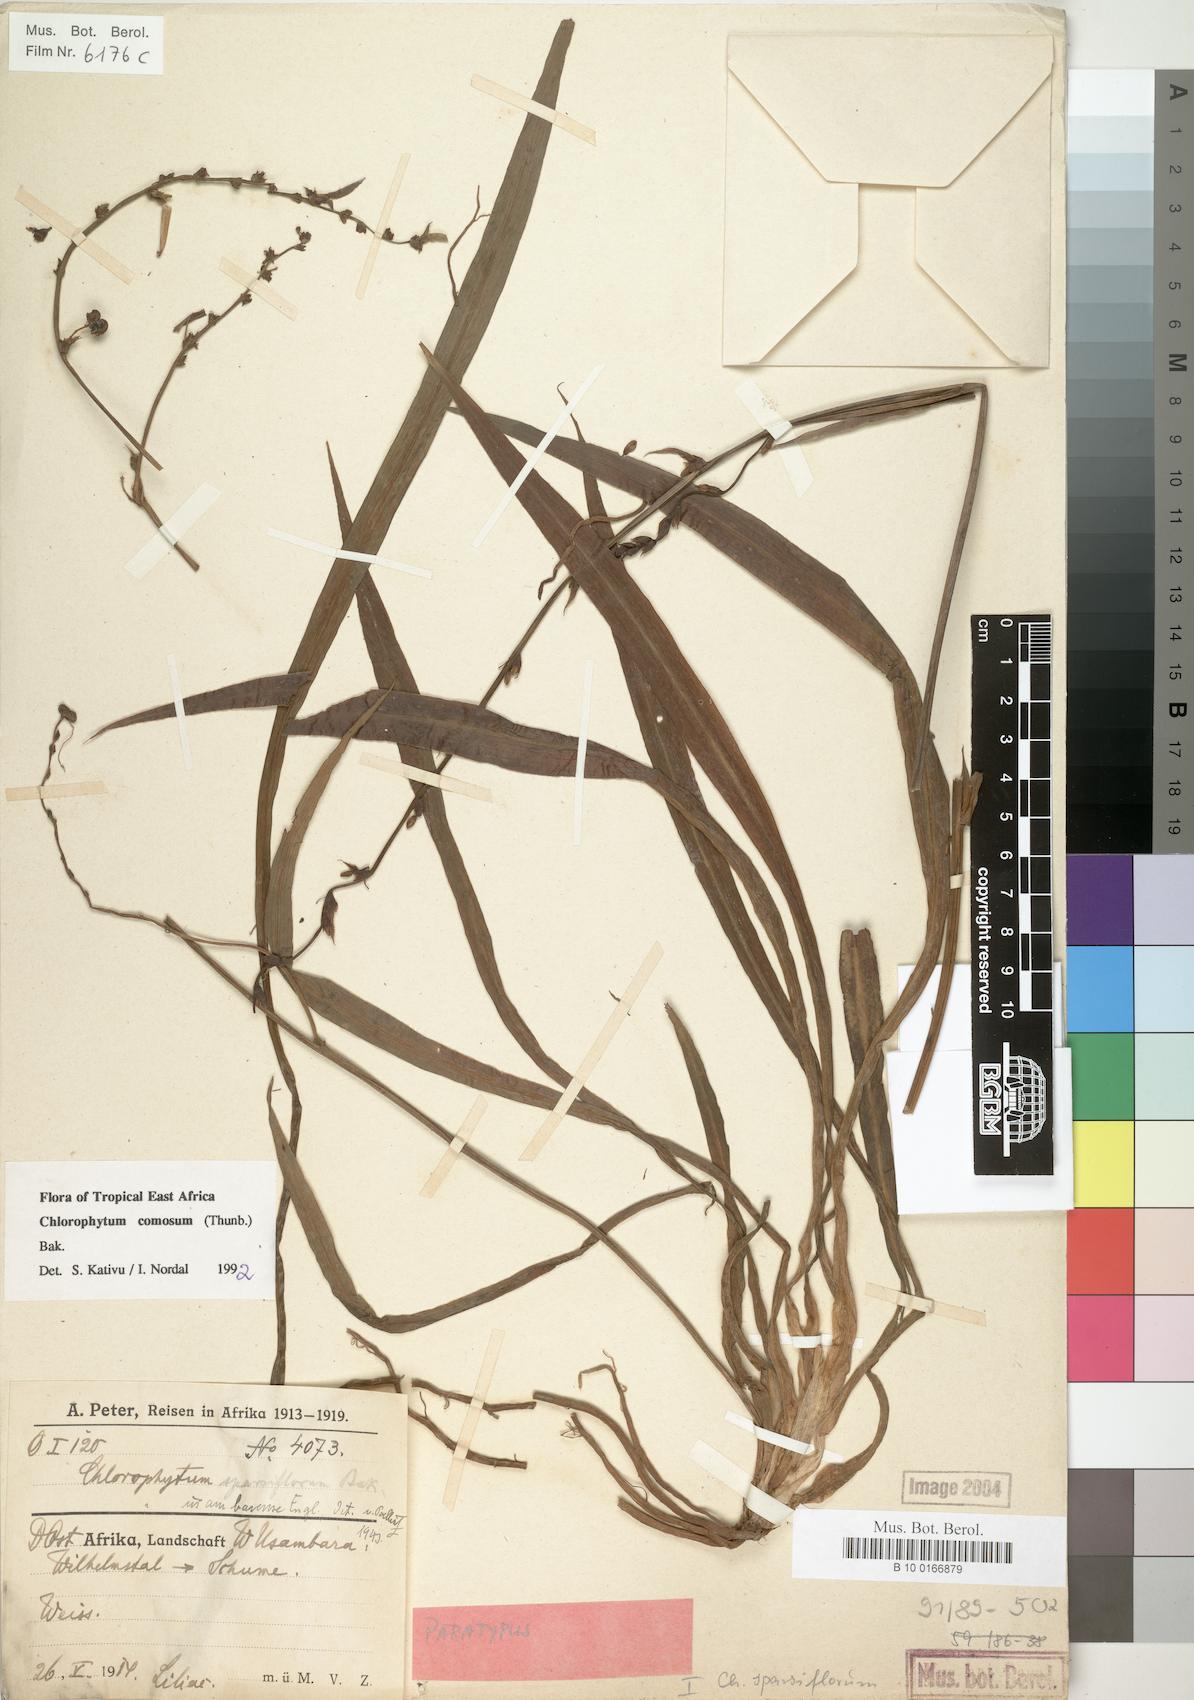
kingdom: Plantae
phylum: Tracheophyta
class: Liliopsida
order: Asparagales
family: Asparagaceae
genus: Chlorophytum
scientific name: Chlorophytum comosum
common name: Spider plant
